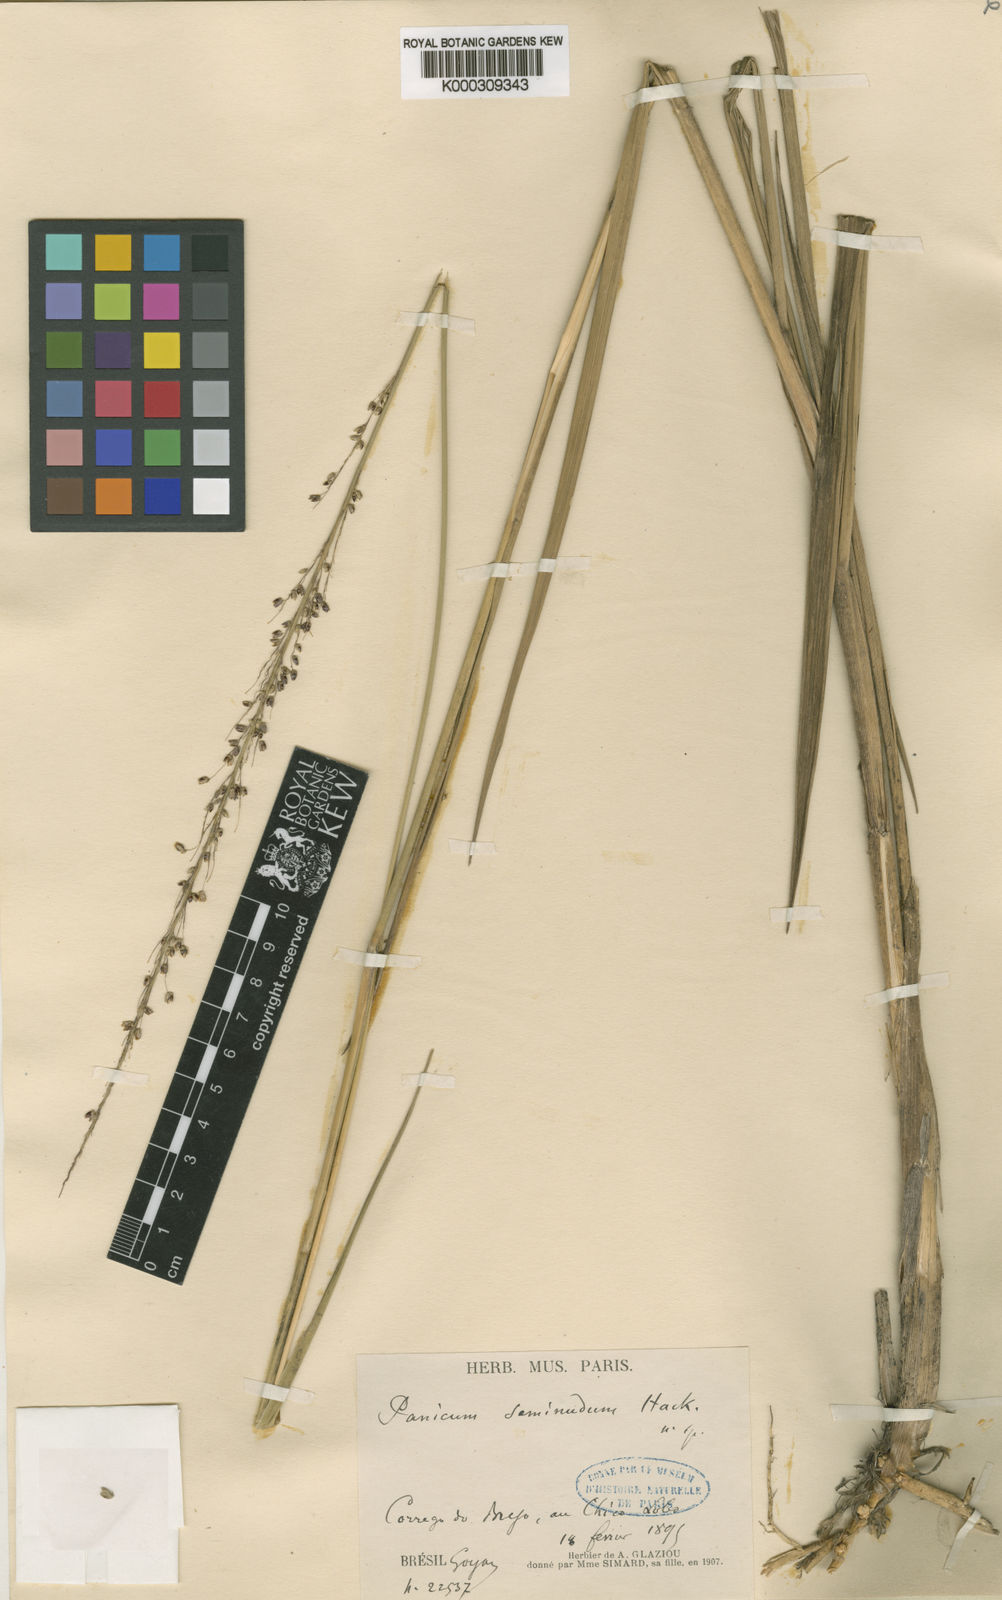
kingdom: Plantae
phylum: Tracheophyta
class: Liliopsida
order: Poales
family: Poaceae
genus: Panicum
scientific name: Panicum
